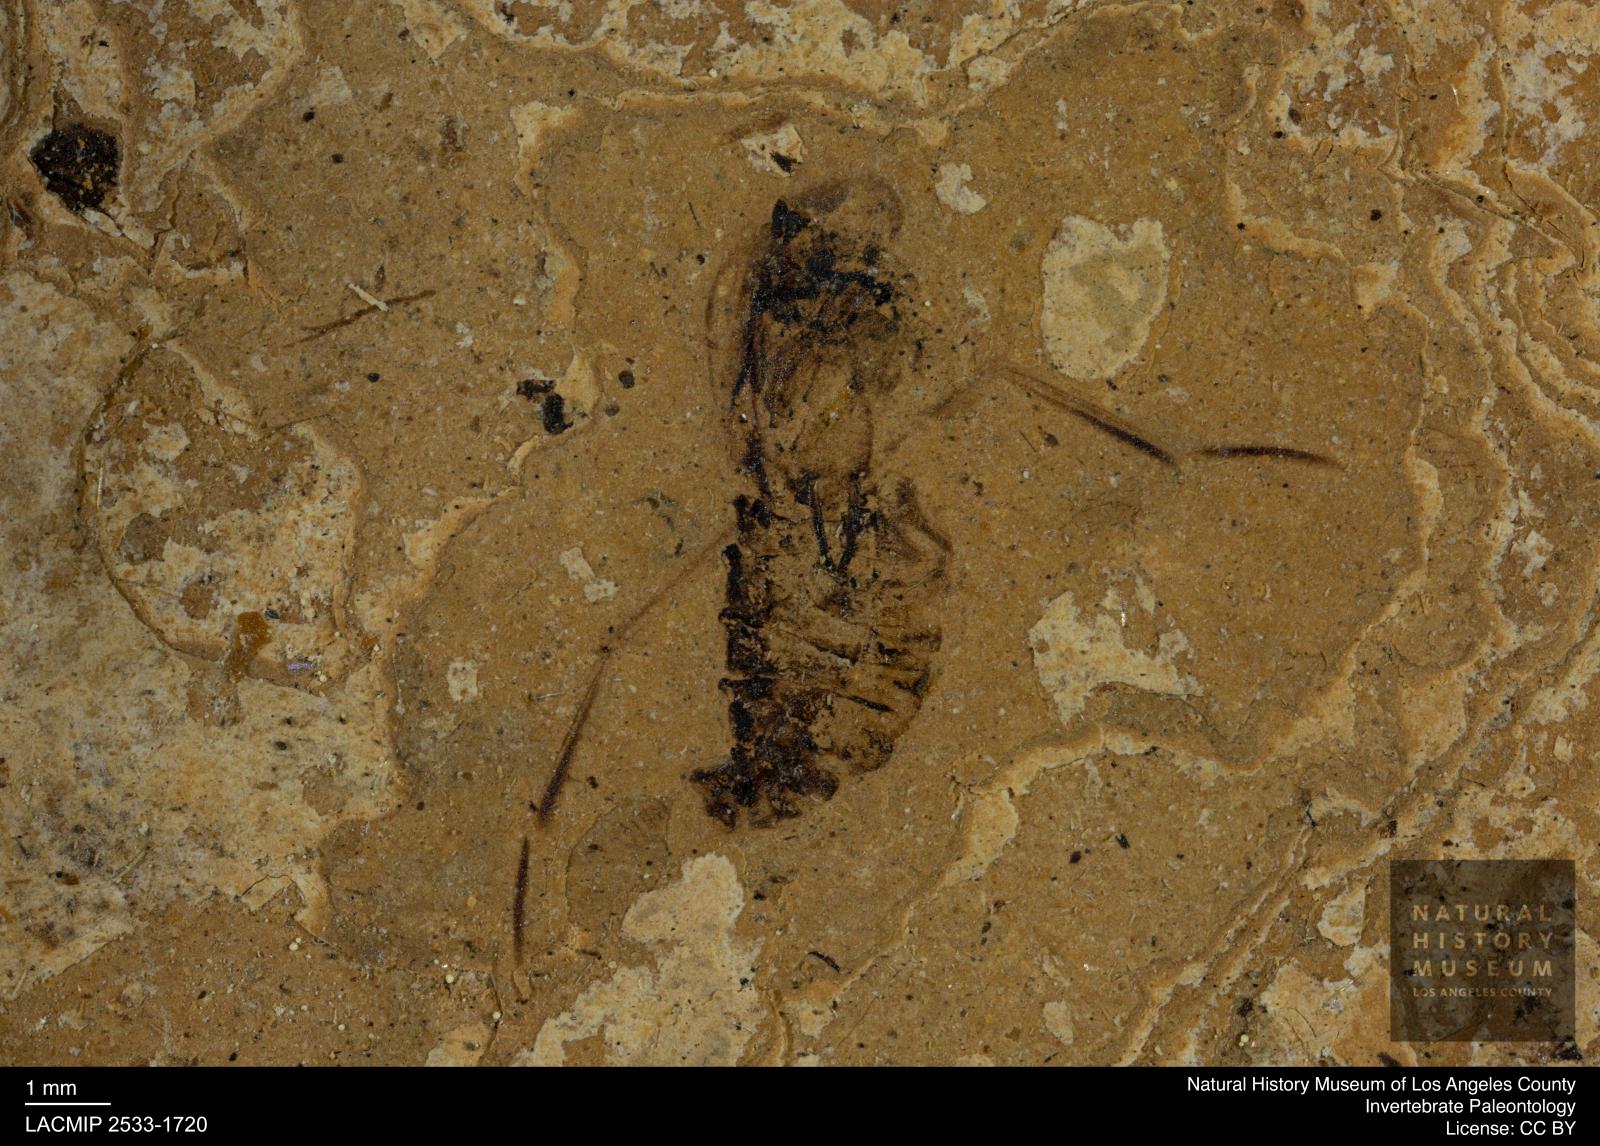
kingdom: Animalia
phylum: Arthropoda
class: Insecta
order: Hemiptera
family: Notonectidae
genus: Notonecta
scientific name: Notonecta
